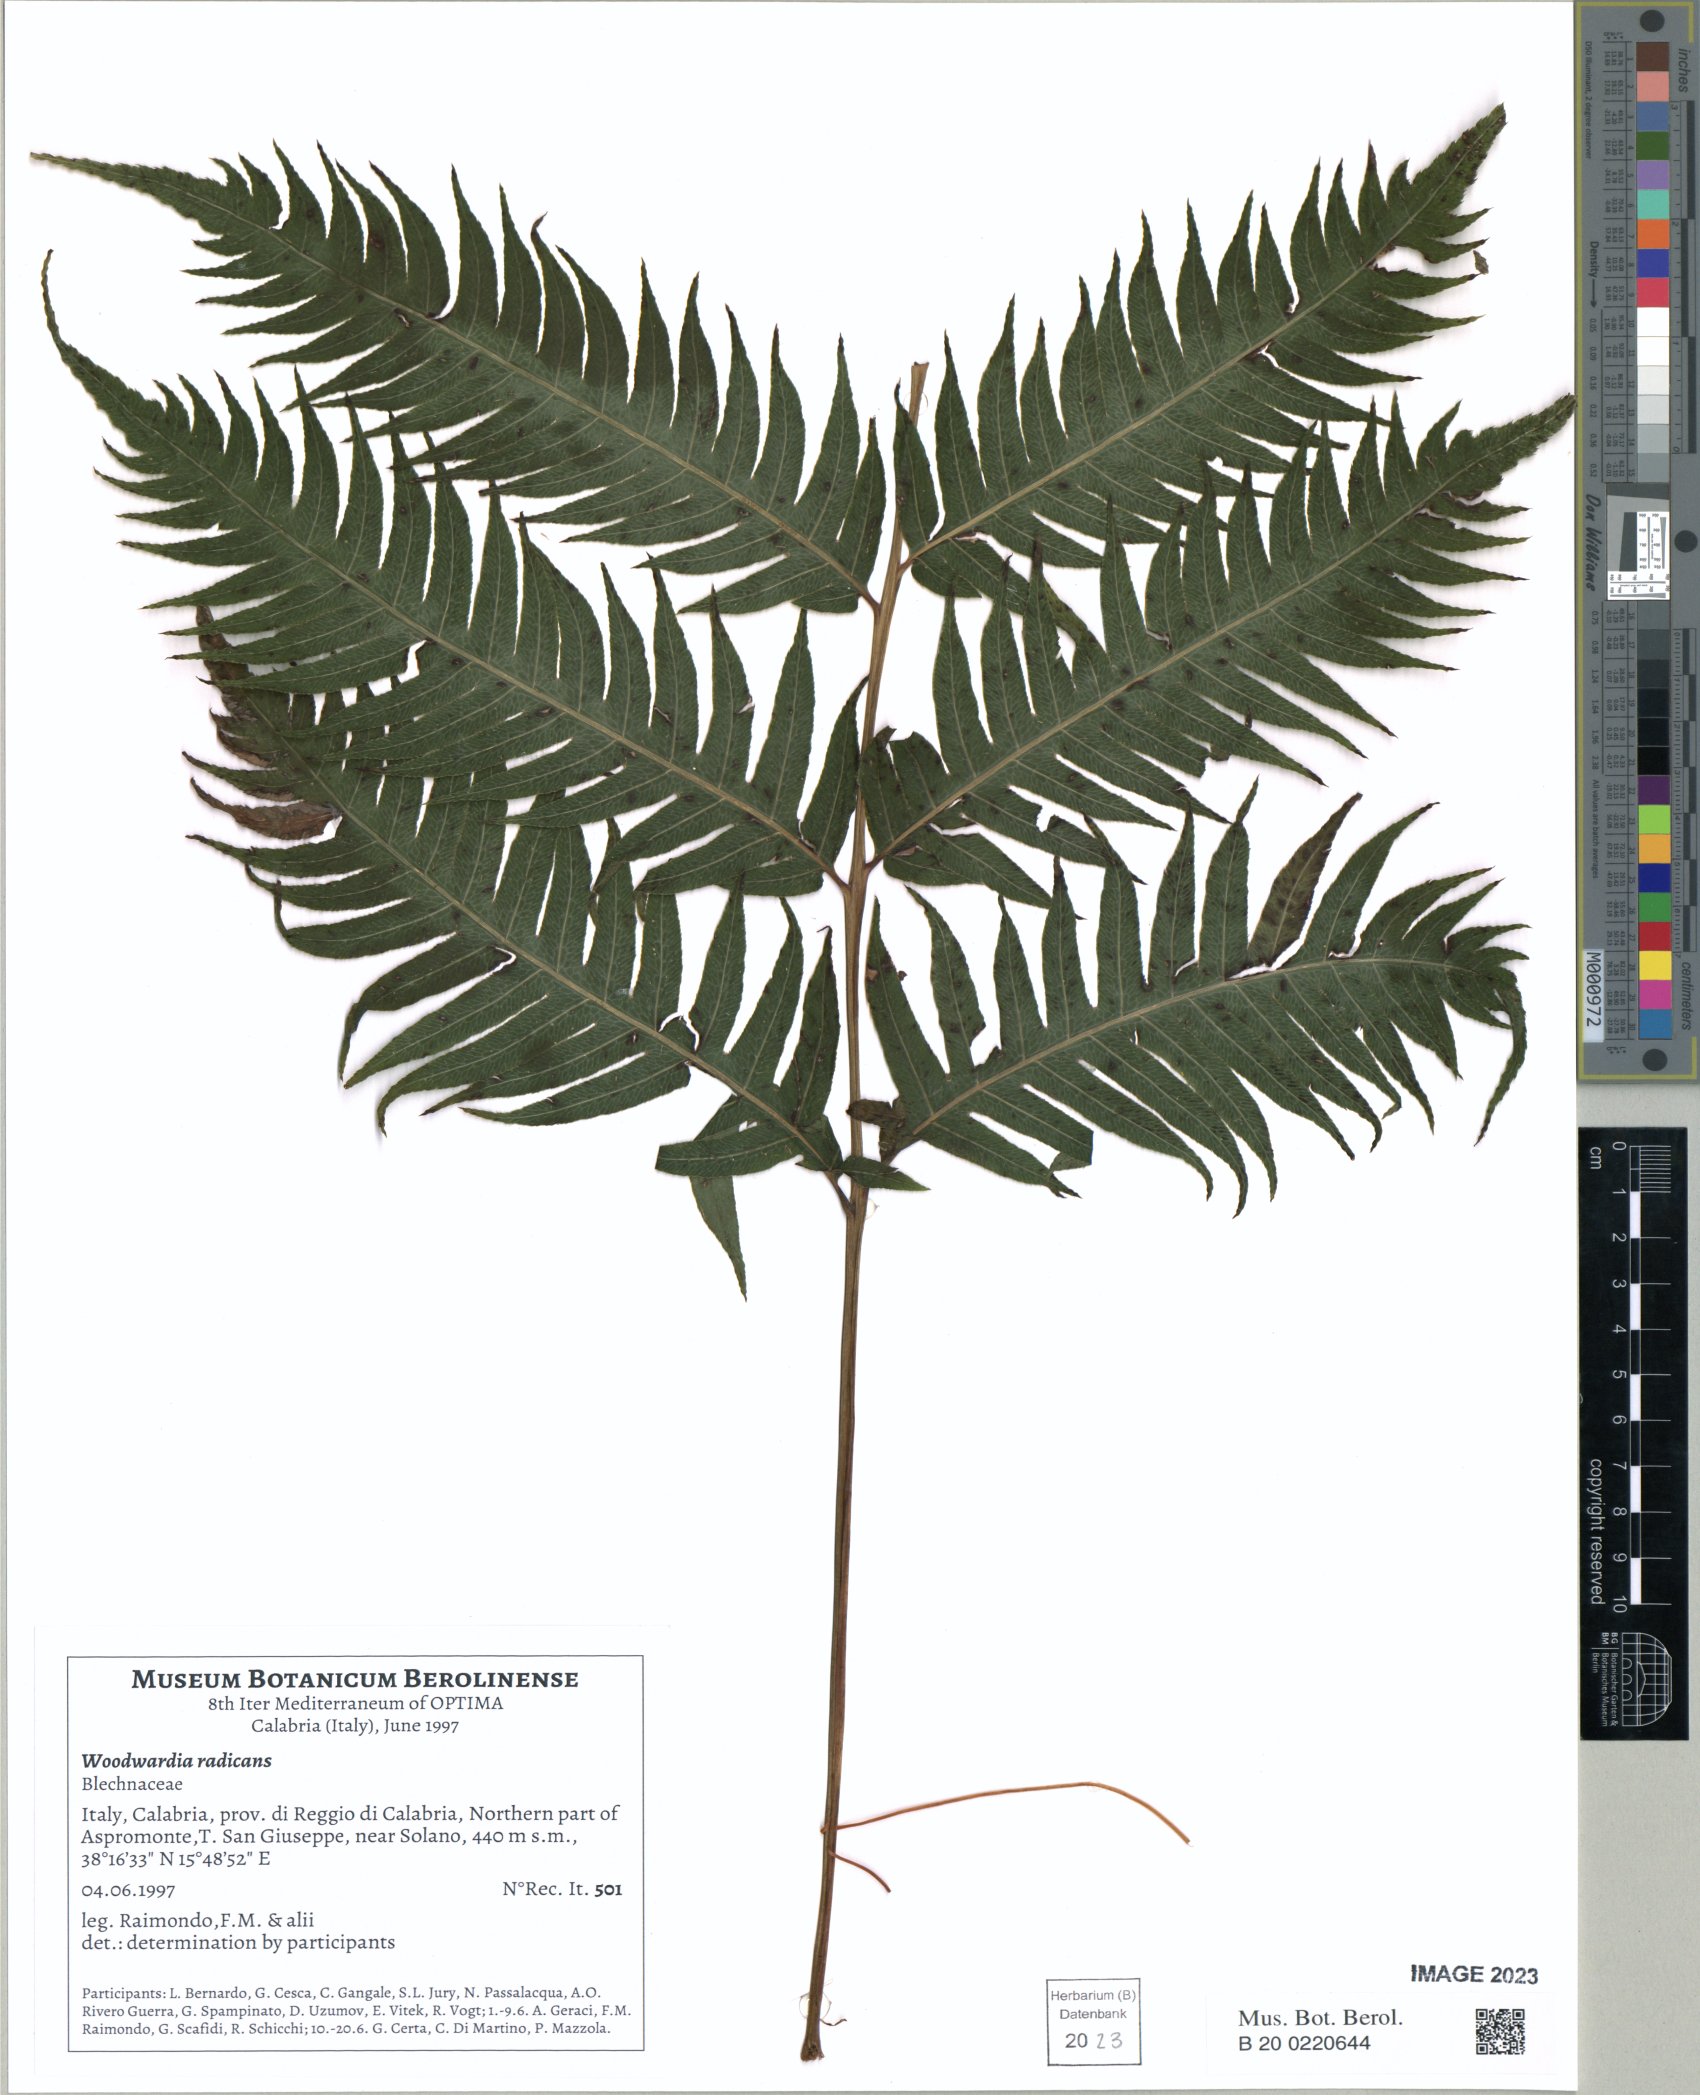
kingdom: Plantae
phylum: Tracheophyta
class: Polypodiopsida
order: Polypodiales
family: Blechnaceae
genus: Woodwardia
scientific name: Woodwardia radicans
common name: Rooting chainfern
